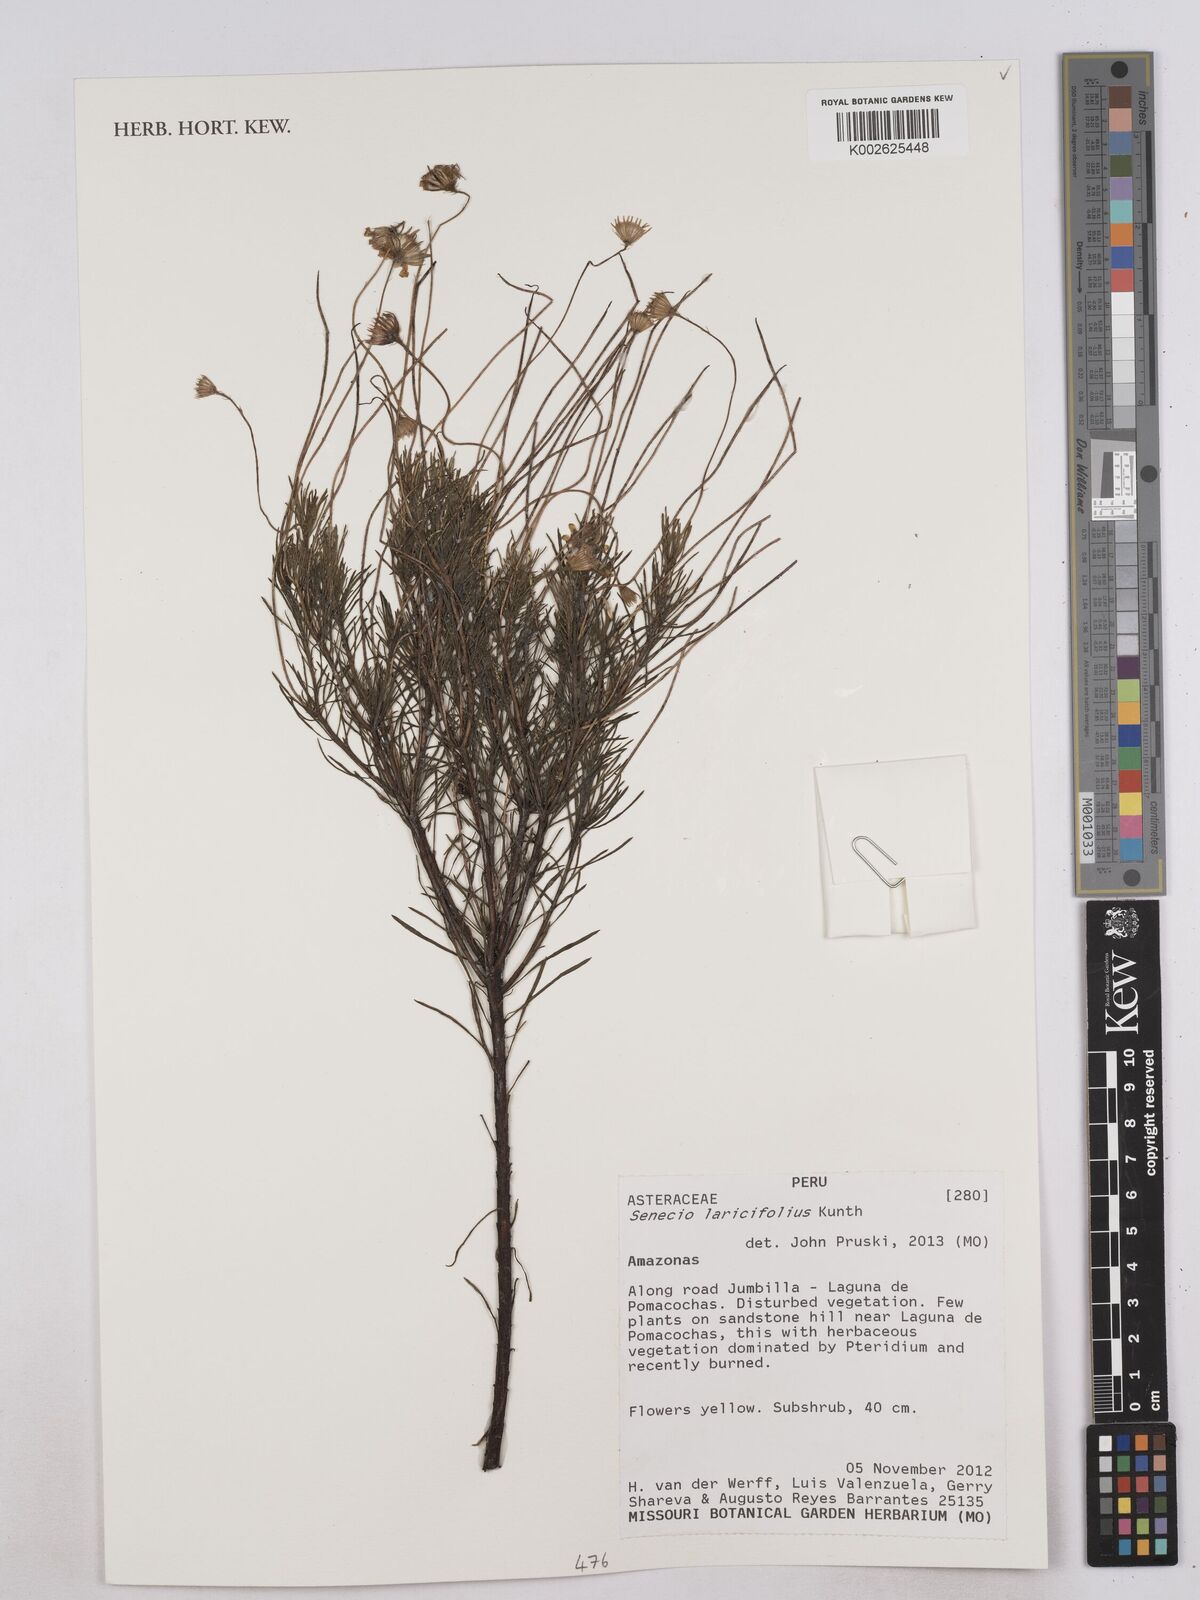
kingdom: Plantae
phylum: Tracheophyta
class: Magnoliopsida
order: Asterales
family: Asteraceae
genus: Senecio
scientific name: Senecio laricifolius
